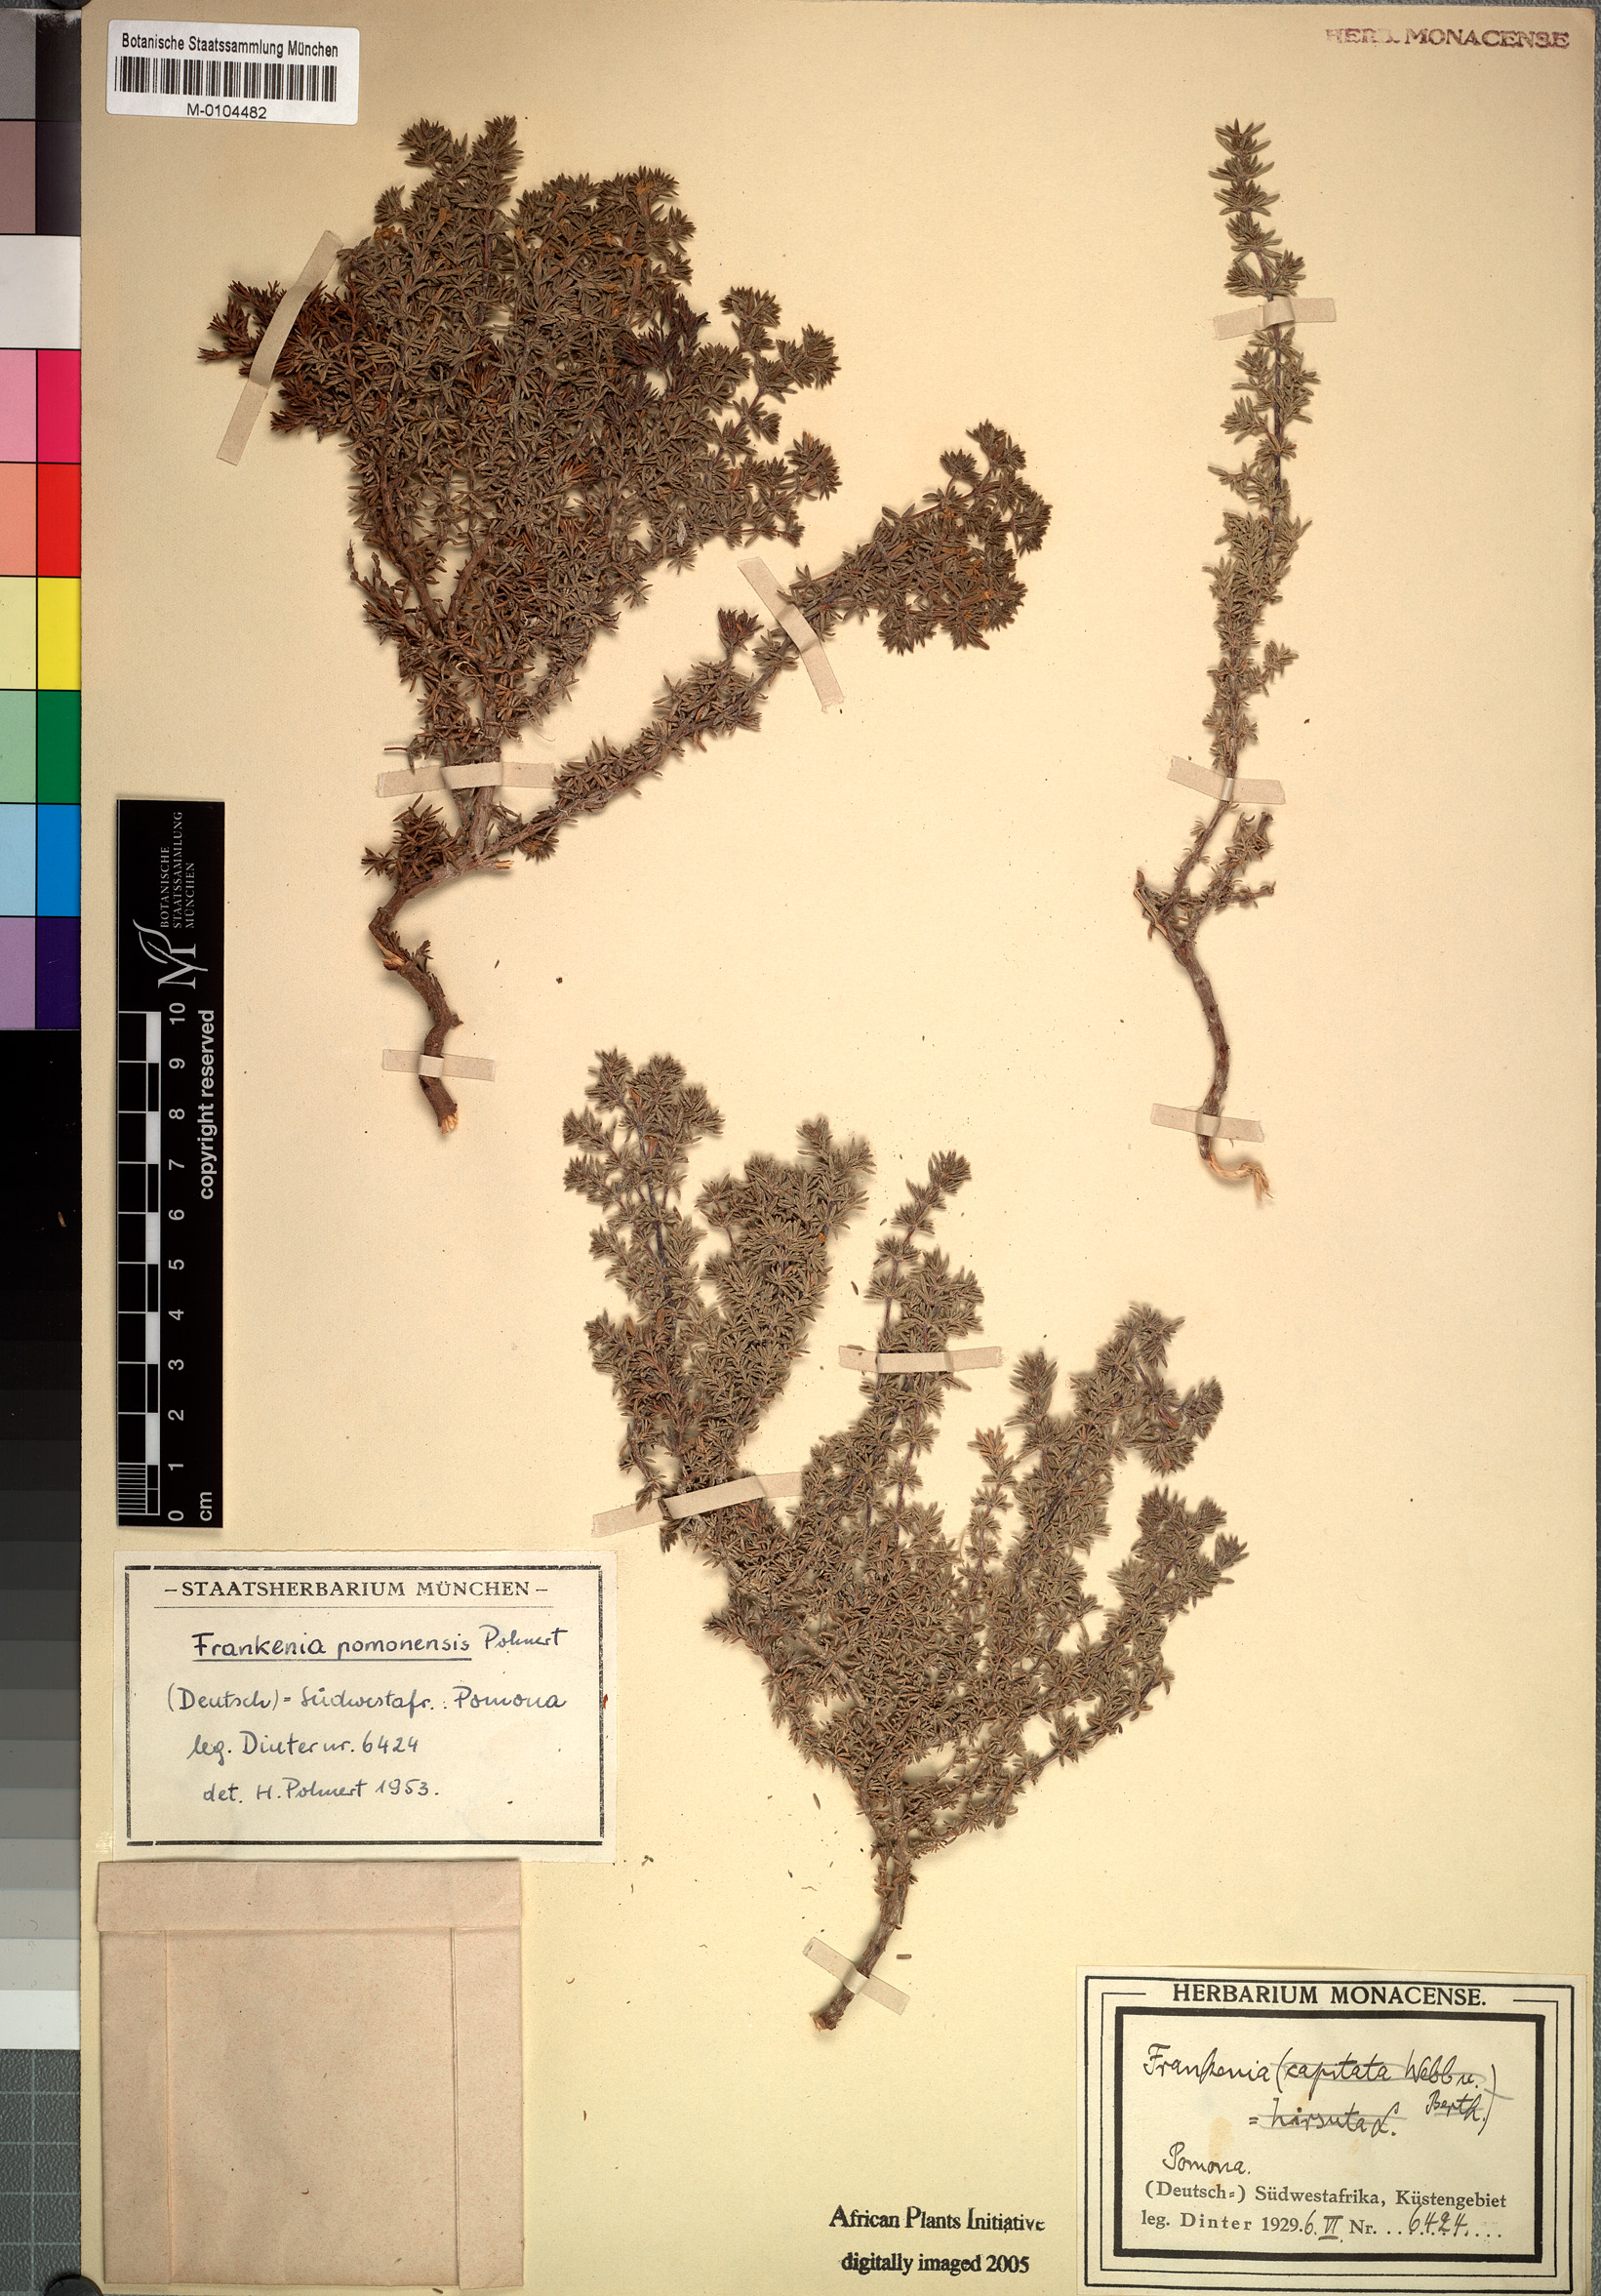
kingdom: Plantae
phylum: Tracheophyta
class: Magnoliopsida
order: Caryophyllales
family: Frankeniaceae
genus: Frankenia
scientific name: Frankenia pomonensis
